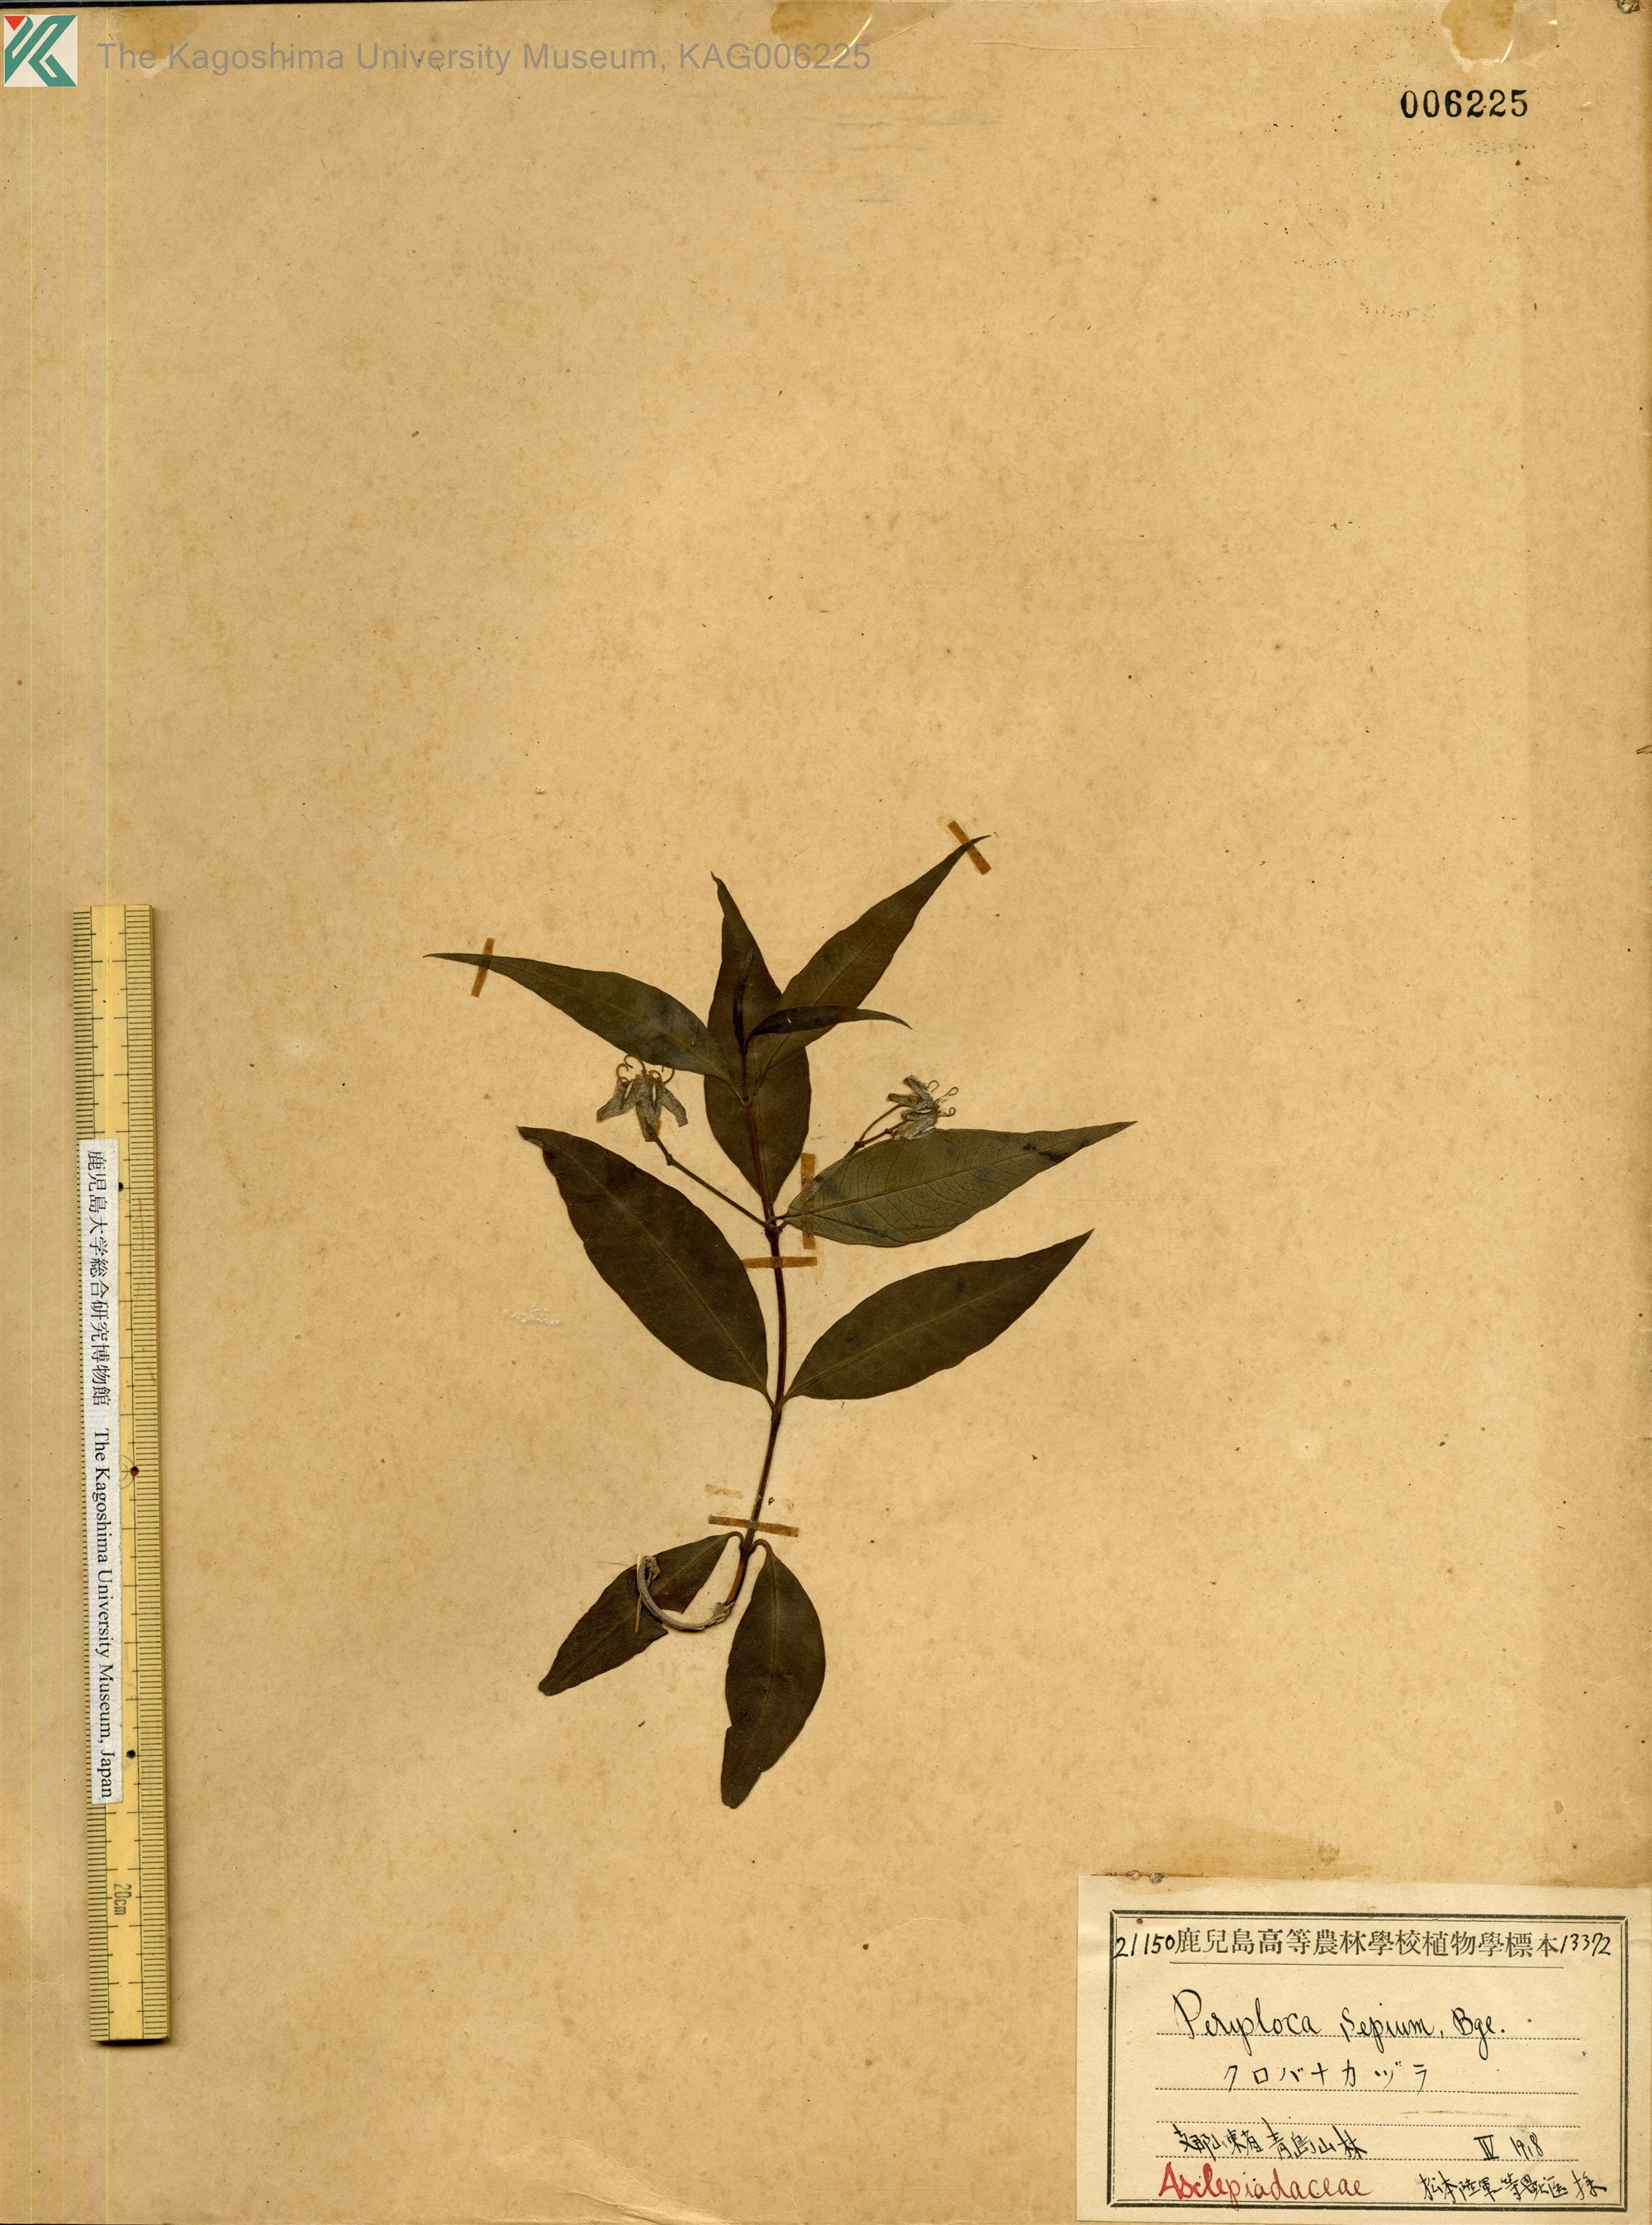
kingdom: Plantae
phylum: Tracheophyta
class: Magnoliopsida
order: Gentianales
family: Apocynaceae
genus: Periploca
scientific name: Periploca sepium
